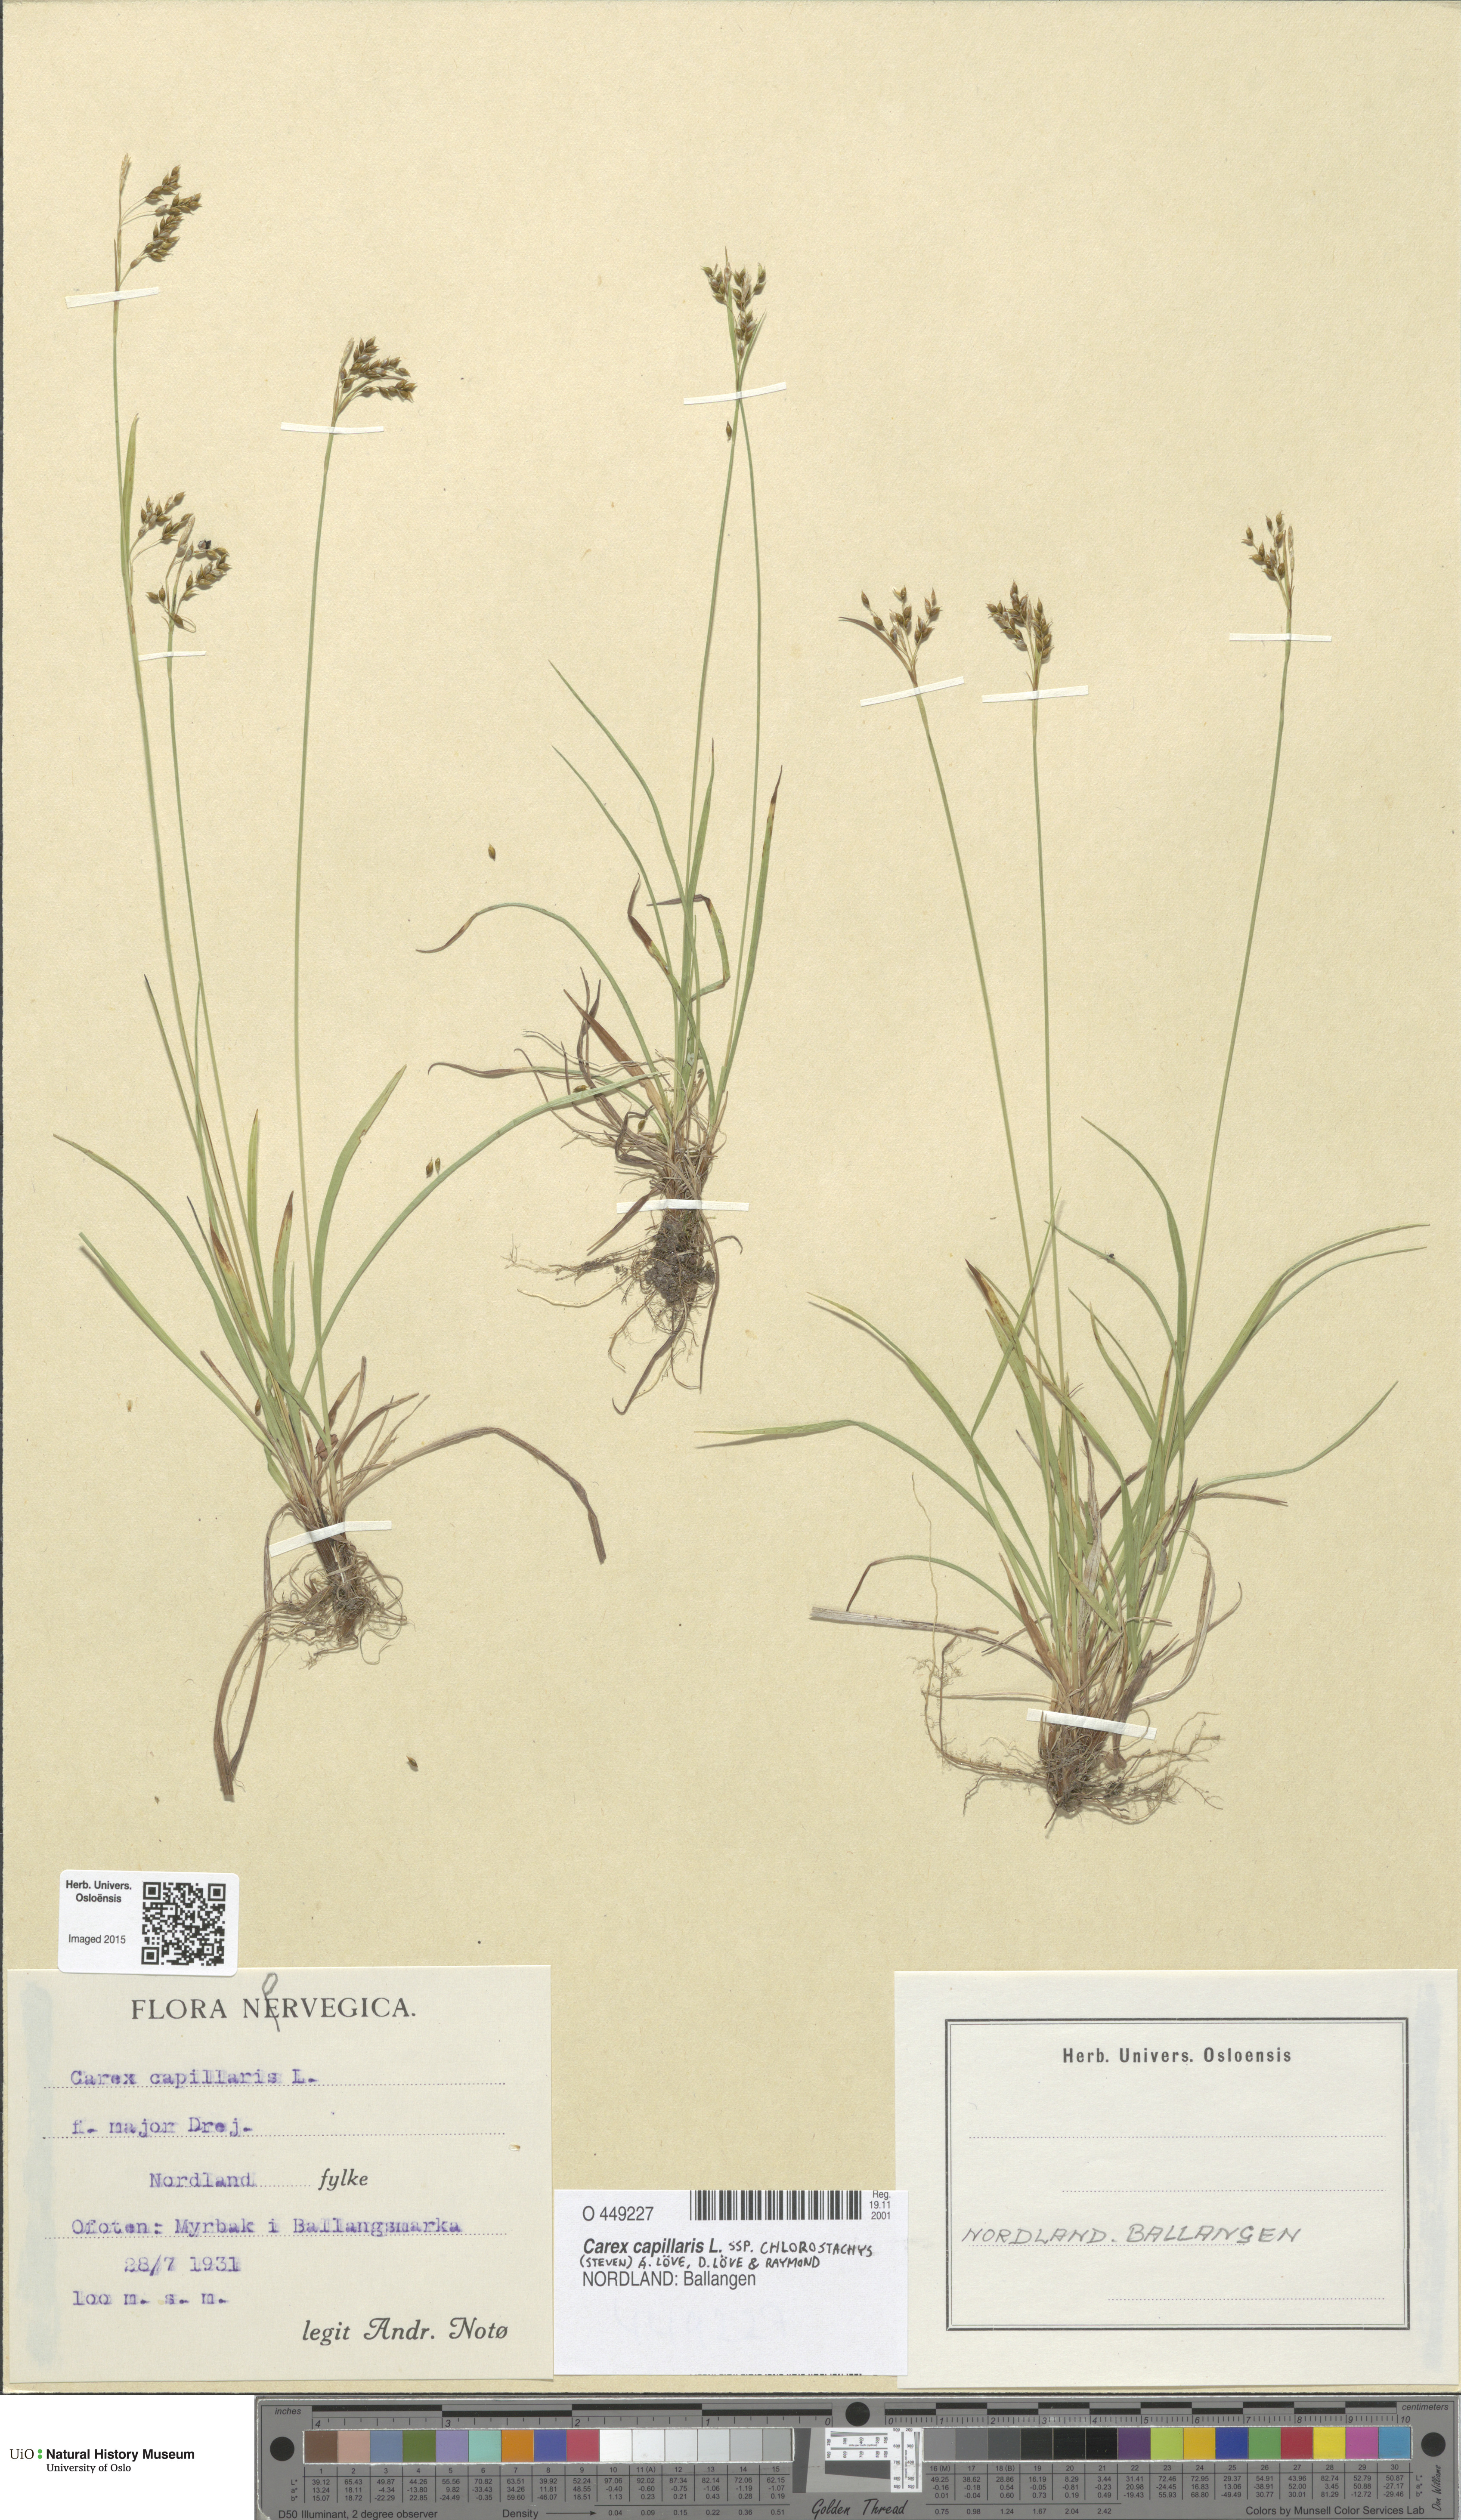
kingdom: Plantae
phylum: Tracheophyta
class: Liliopsida
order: Poales
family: Cyperaceae
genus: Carex
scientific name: Carex capillaris
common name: Hair sedge
